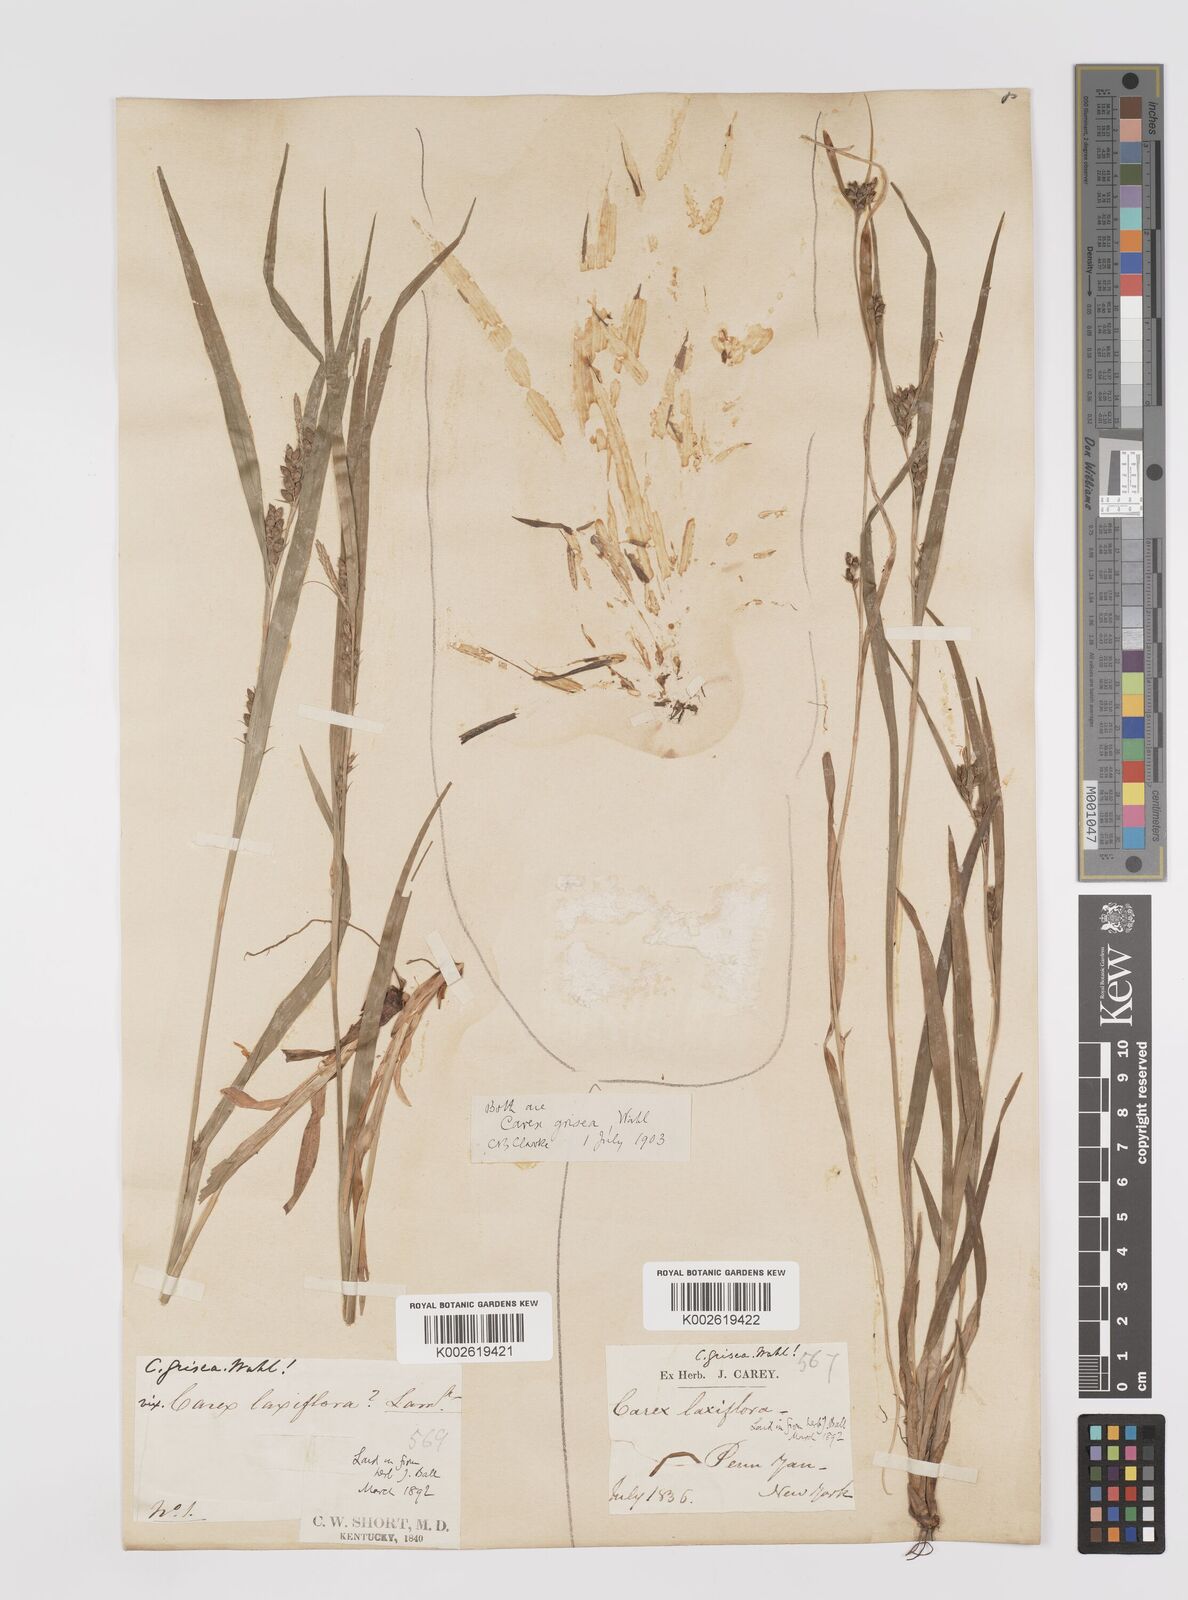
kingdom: Plantae
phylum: Tracheophyta
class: Liliopsida
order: Poales
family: Cyperaceae
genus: Carex
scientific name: Carex grisea
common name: Eastern narrow-leaved sedge
